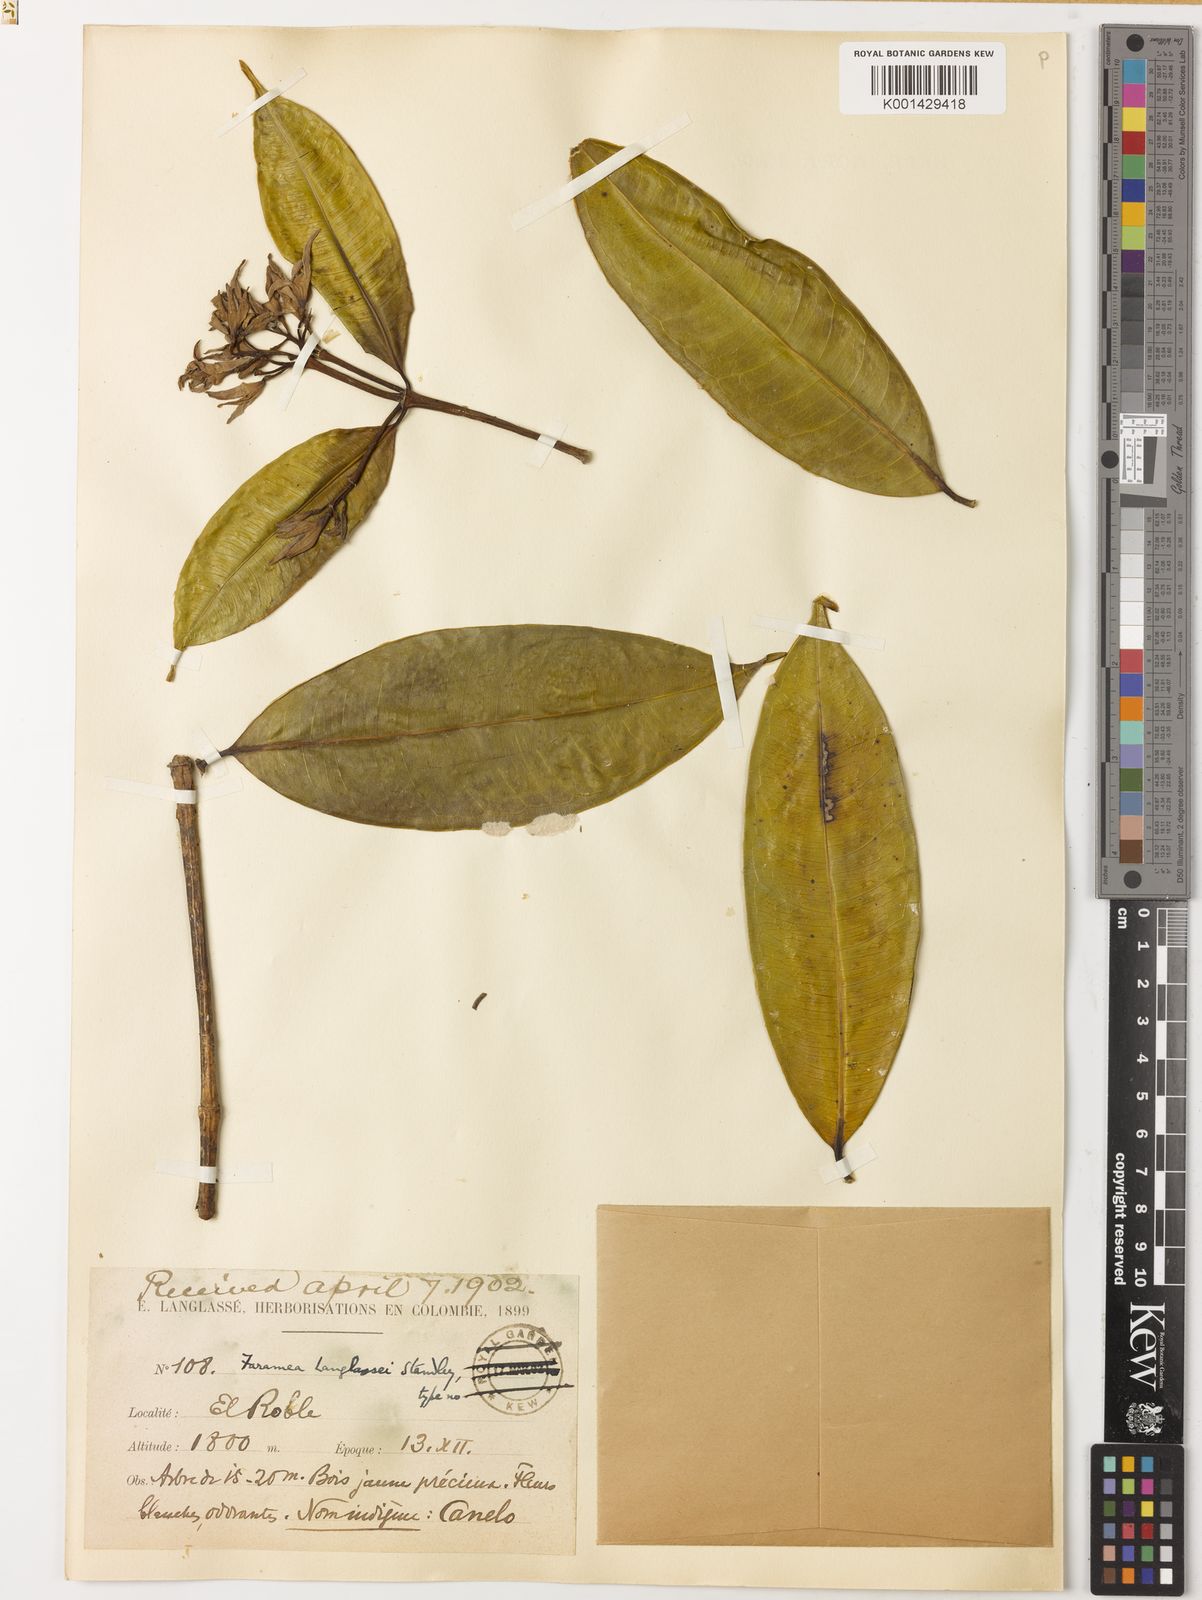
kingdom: Plantae
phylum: Tracheophyta
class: Magnoliopsida
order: Gentianales
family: Rubiaceae
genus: Faramea
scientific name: Faramea langlassei
